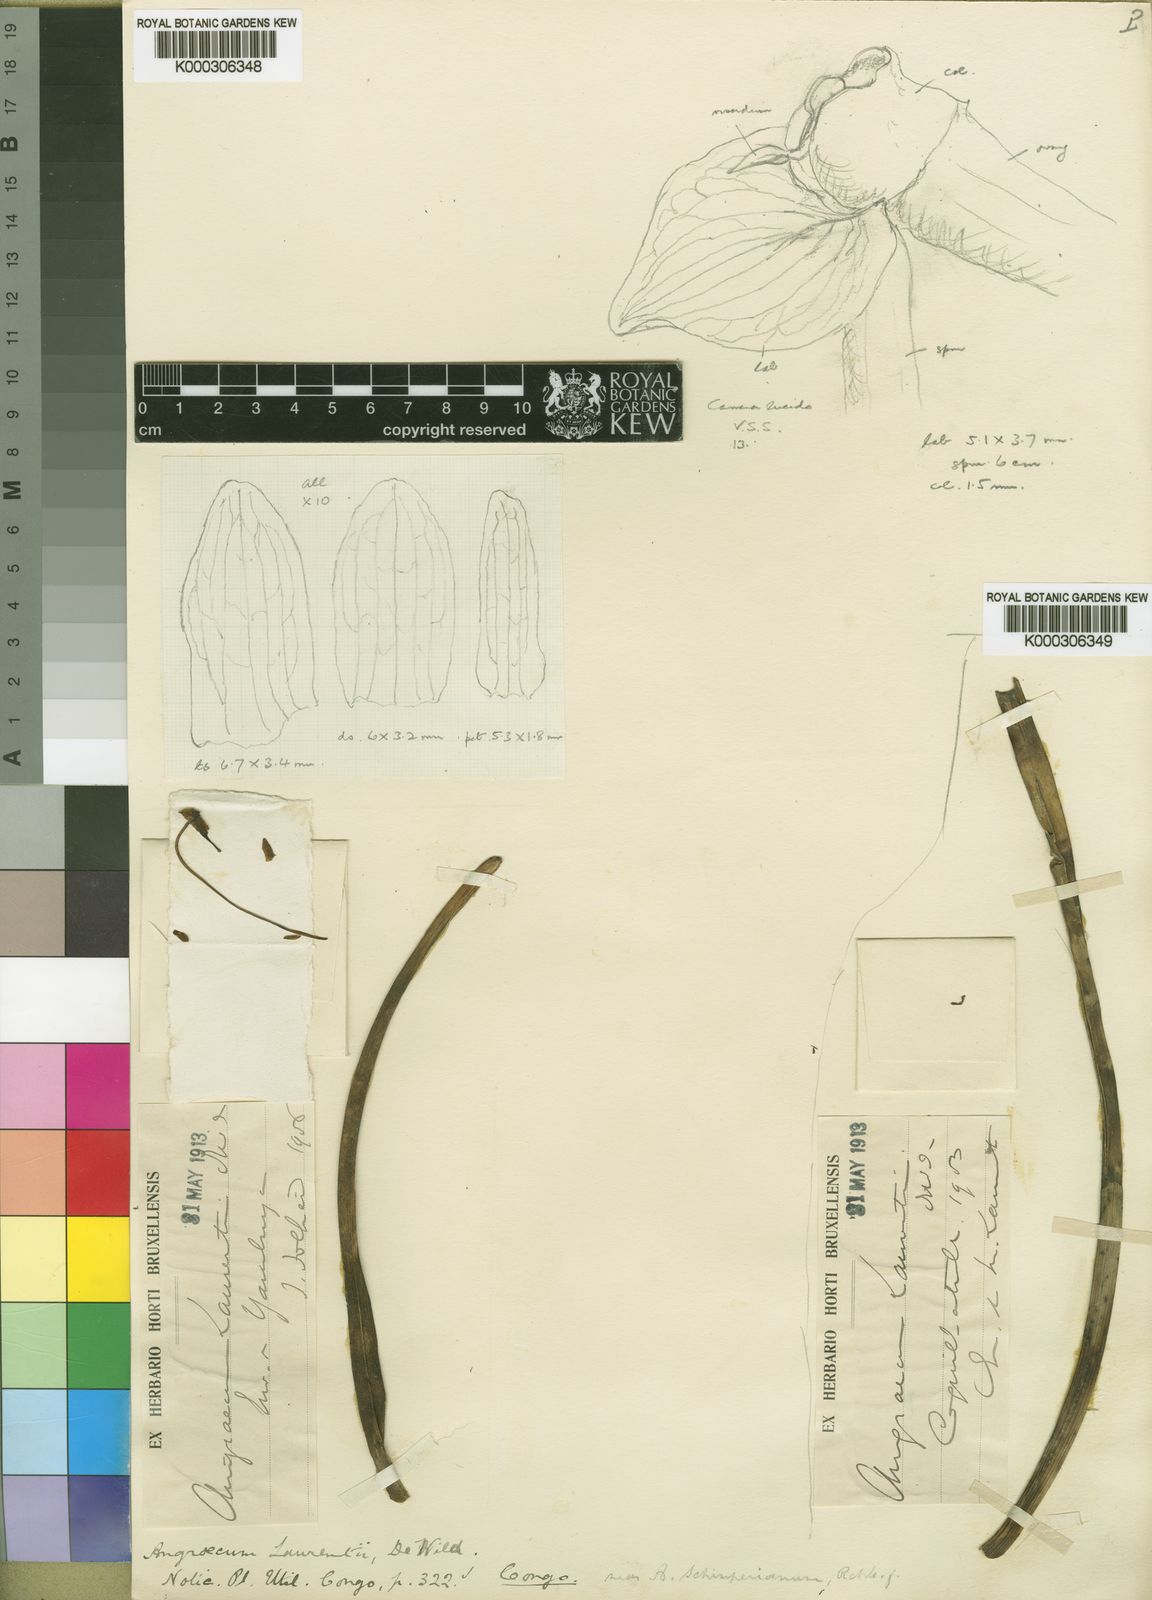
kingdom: Plantae
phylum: Tracheophyta
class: Liliopsida
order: Asparagales
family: Orchidaceae
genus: Summerhayesia
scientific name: Summerhayesia laurentii
